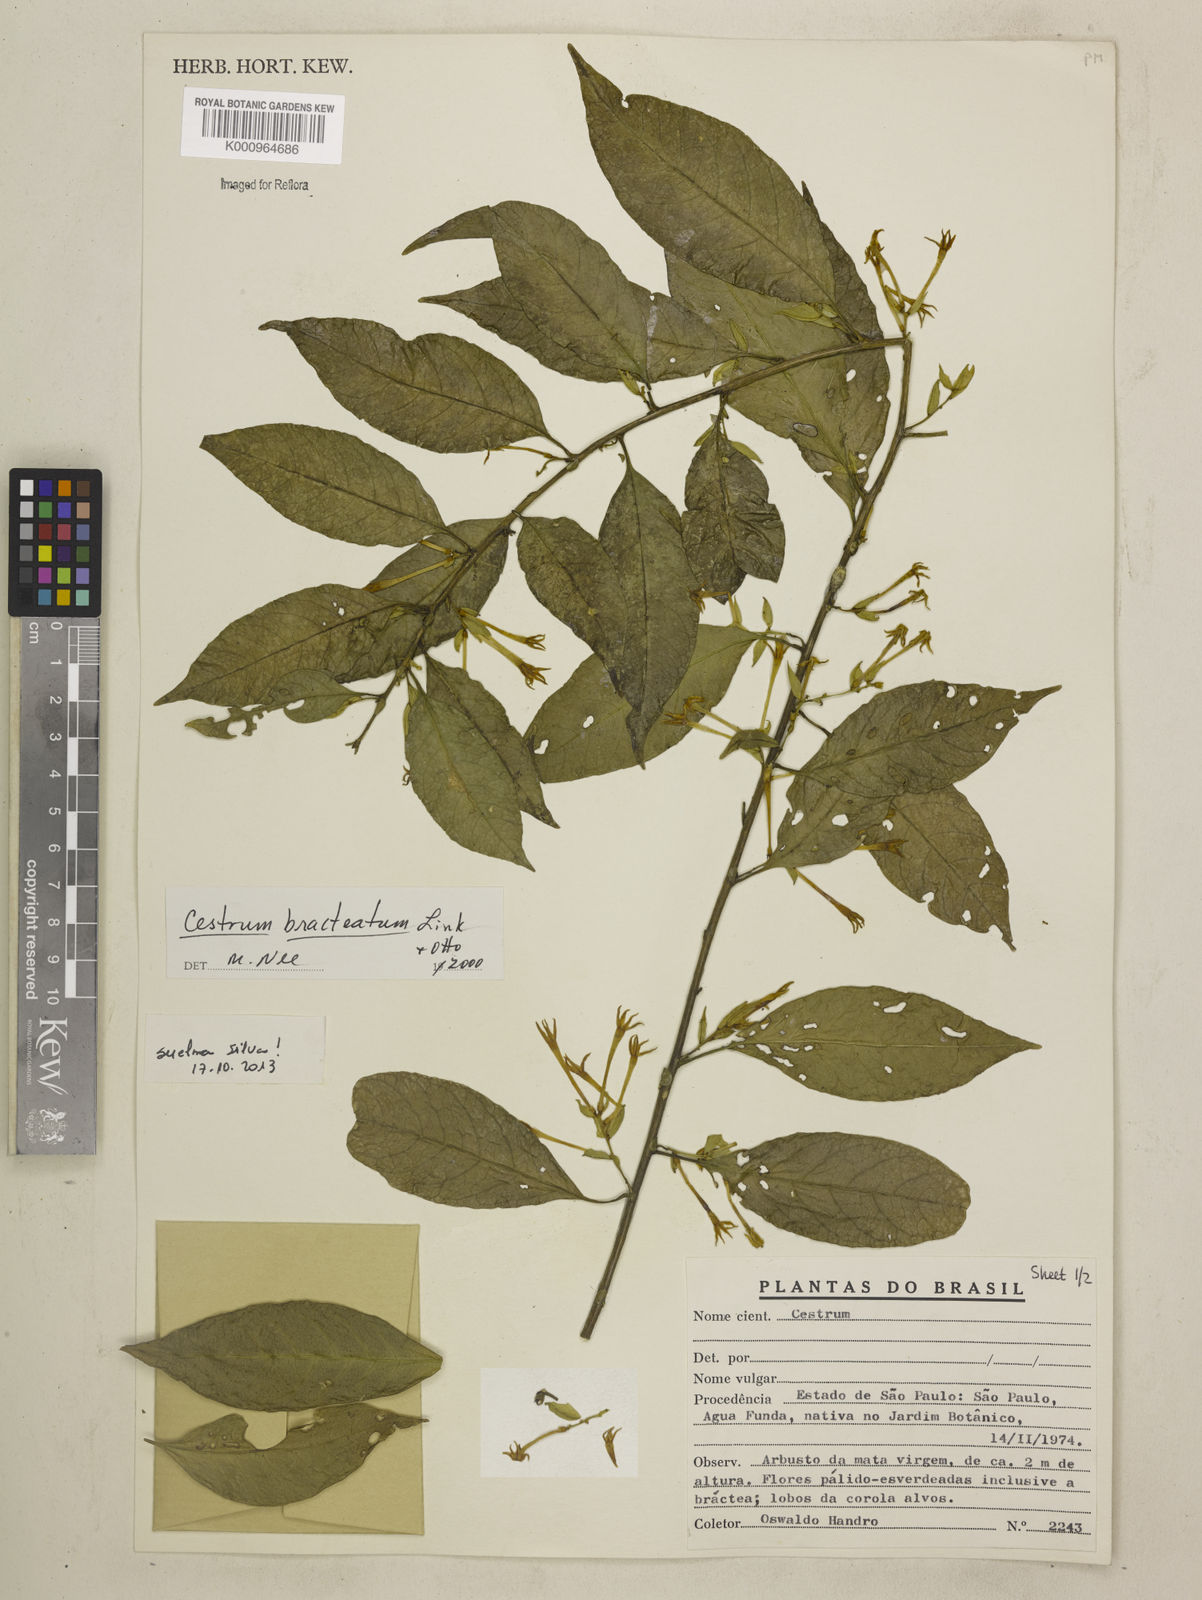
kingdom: Plantae
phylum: Tracheophyta
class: Magnoliopsida
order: Solanales
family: Solanaceae
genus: Cestrum
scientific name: Cestrum bracteatum
